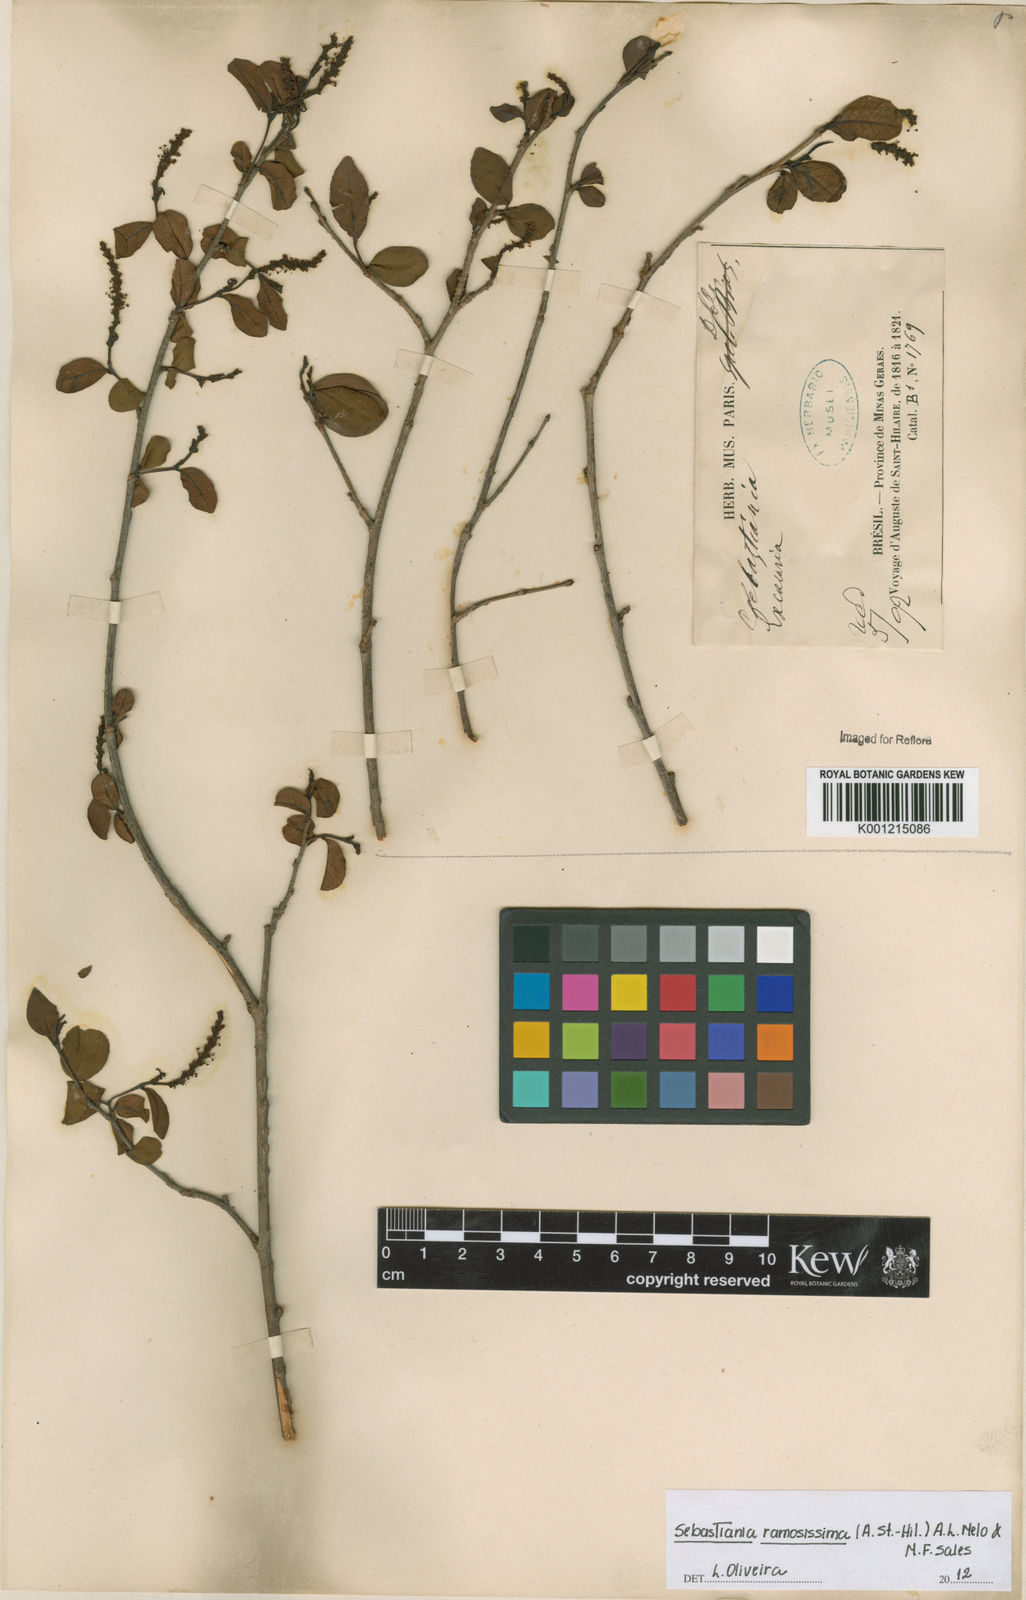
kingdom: Plantae
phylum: Tracheophyta
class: Magnoliopsida
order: Malpighiales
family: Euphorbiaceae
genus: Sebastiania
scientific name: Sebastiania
